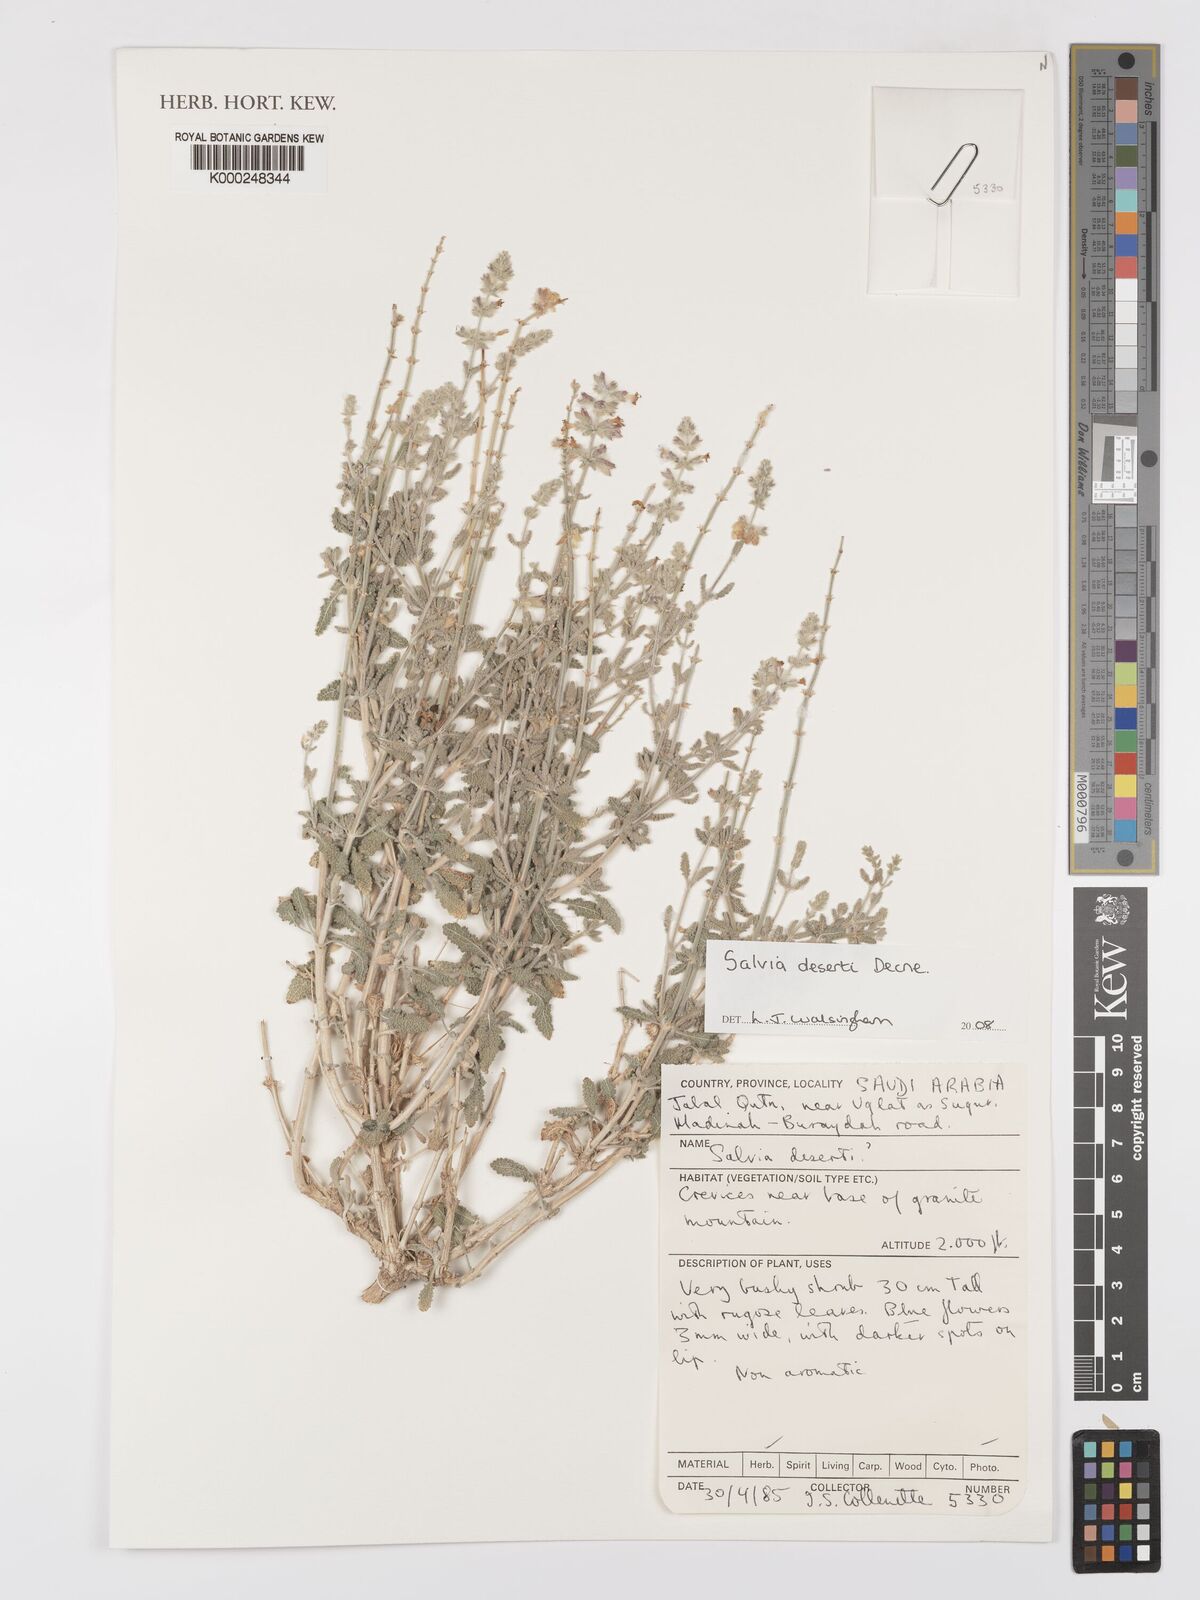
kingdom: Plantae
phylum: Tracheophyta
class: Magnoliopsida
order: Lamiales
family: Lamiaceae
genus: Salvia
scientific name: Salvia deserti
